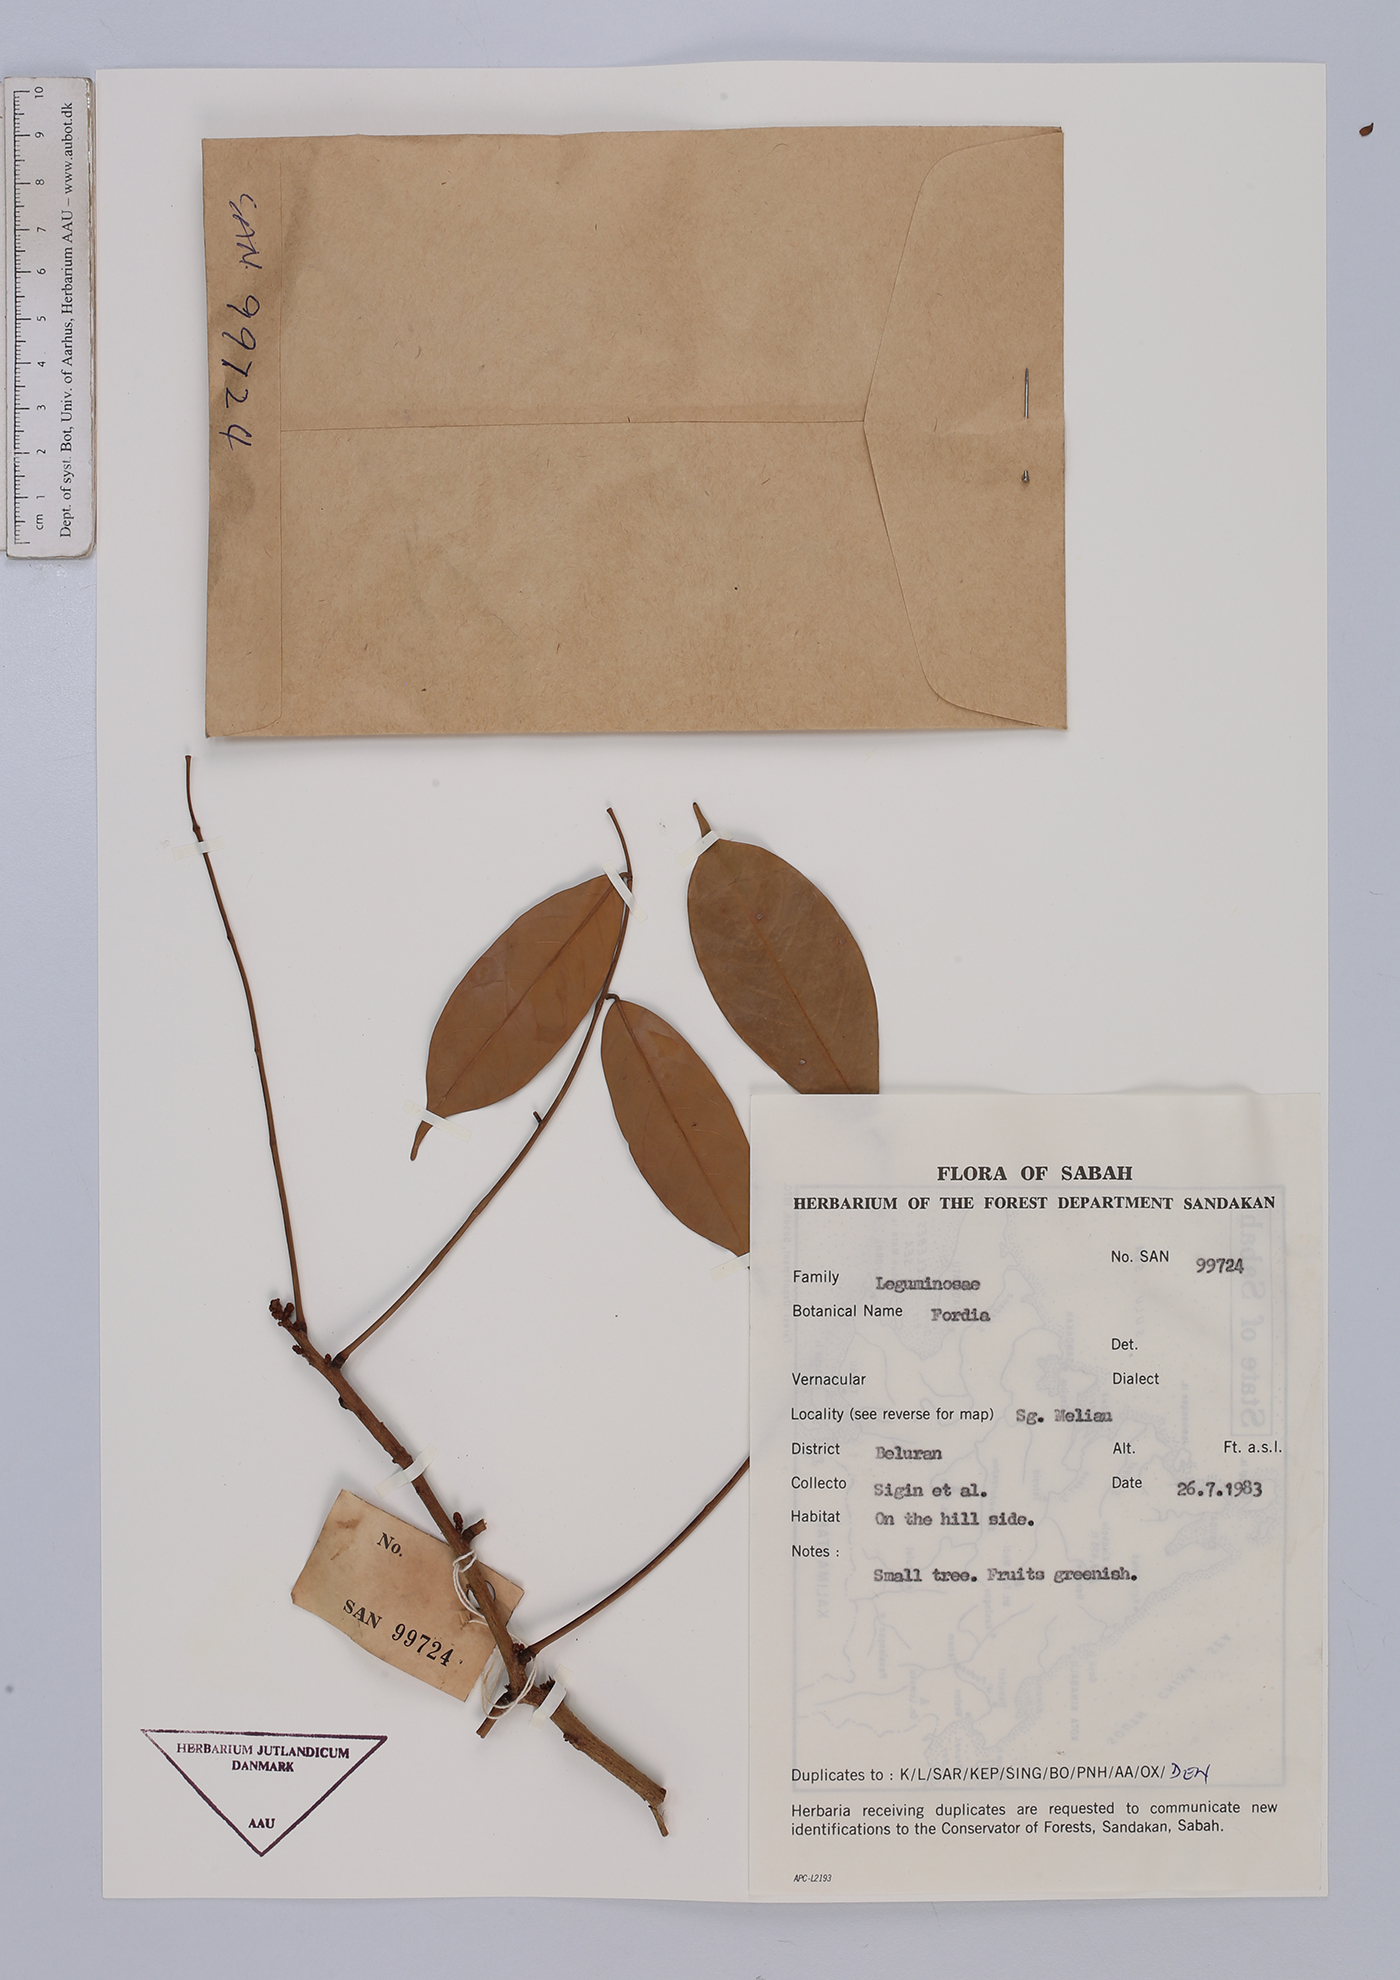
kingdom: Plantae
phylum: Tracheophyta
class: Magnoliopsida
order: Fabales
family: Fabaceae
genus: Fordia
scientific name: Fordia
